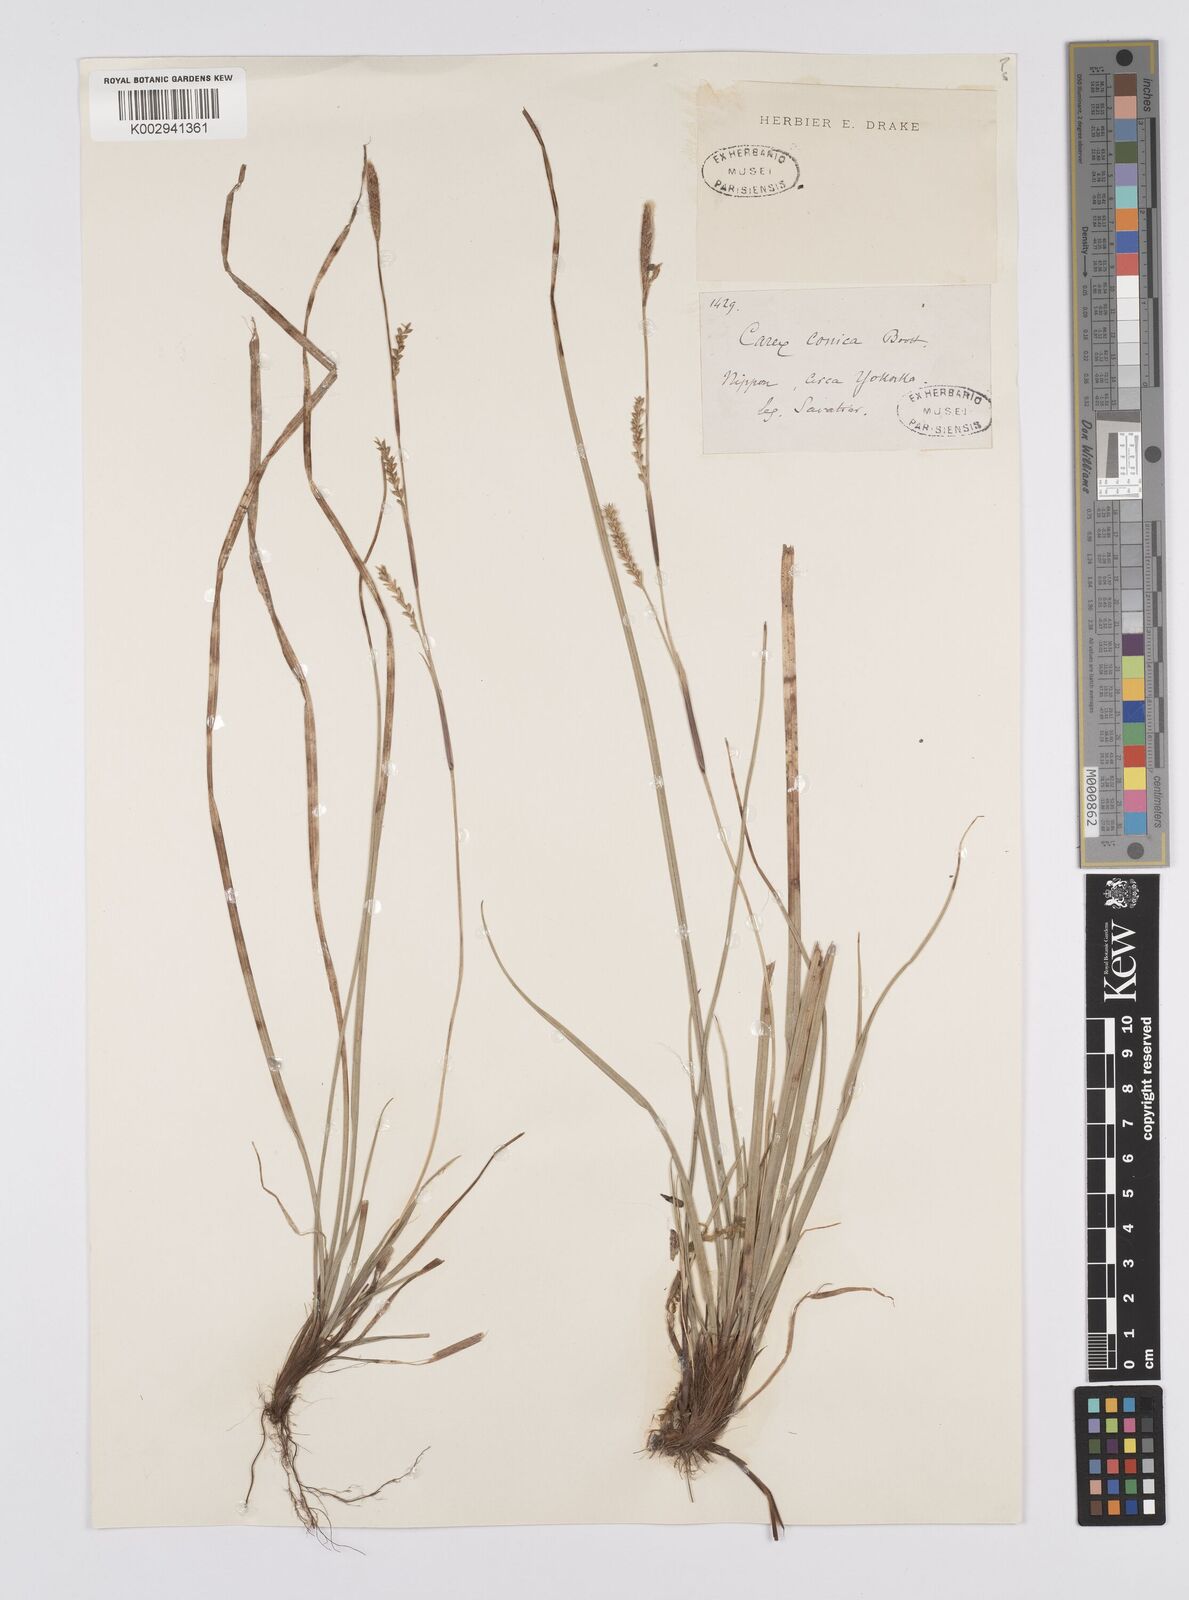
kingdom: Plantae
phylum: Tracheophyta
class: Liliopsida
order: Poales
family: Cyperaceae
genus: Carex
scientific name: Carex conica
